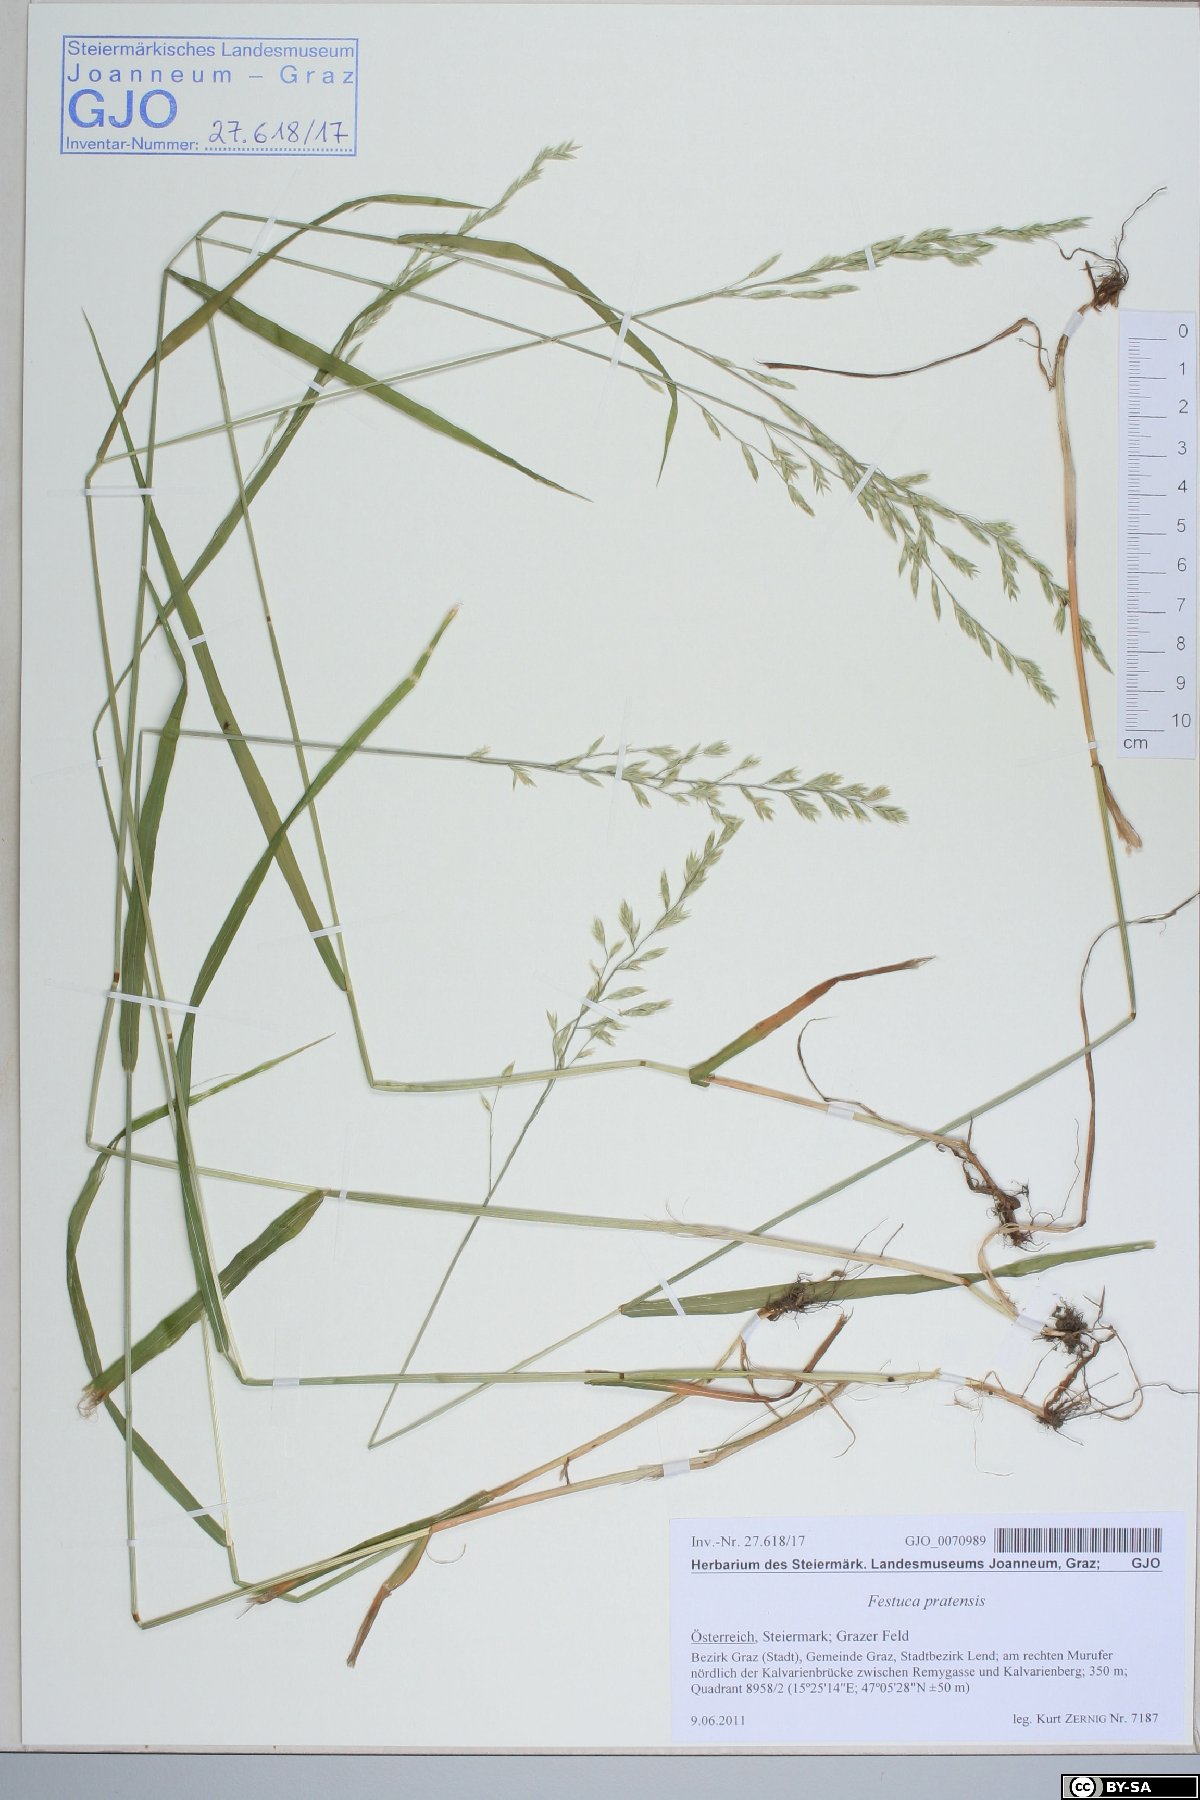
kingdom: Plantae
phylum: Tracheophyta
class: Liliopsida
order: Poales
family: Poaceae
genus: Lolium
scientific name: Lolium pratense
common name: Dover grass
